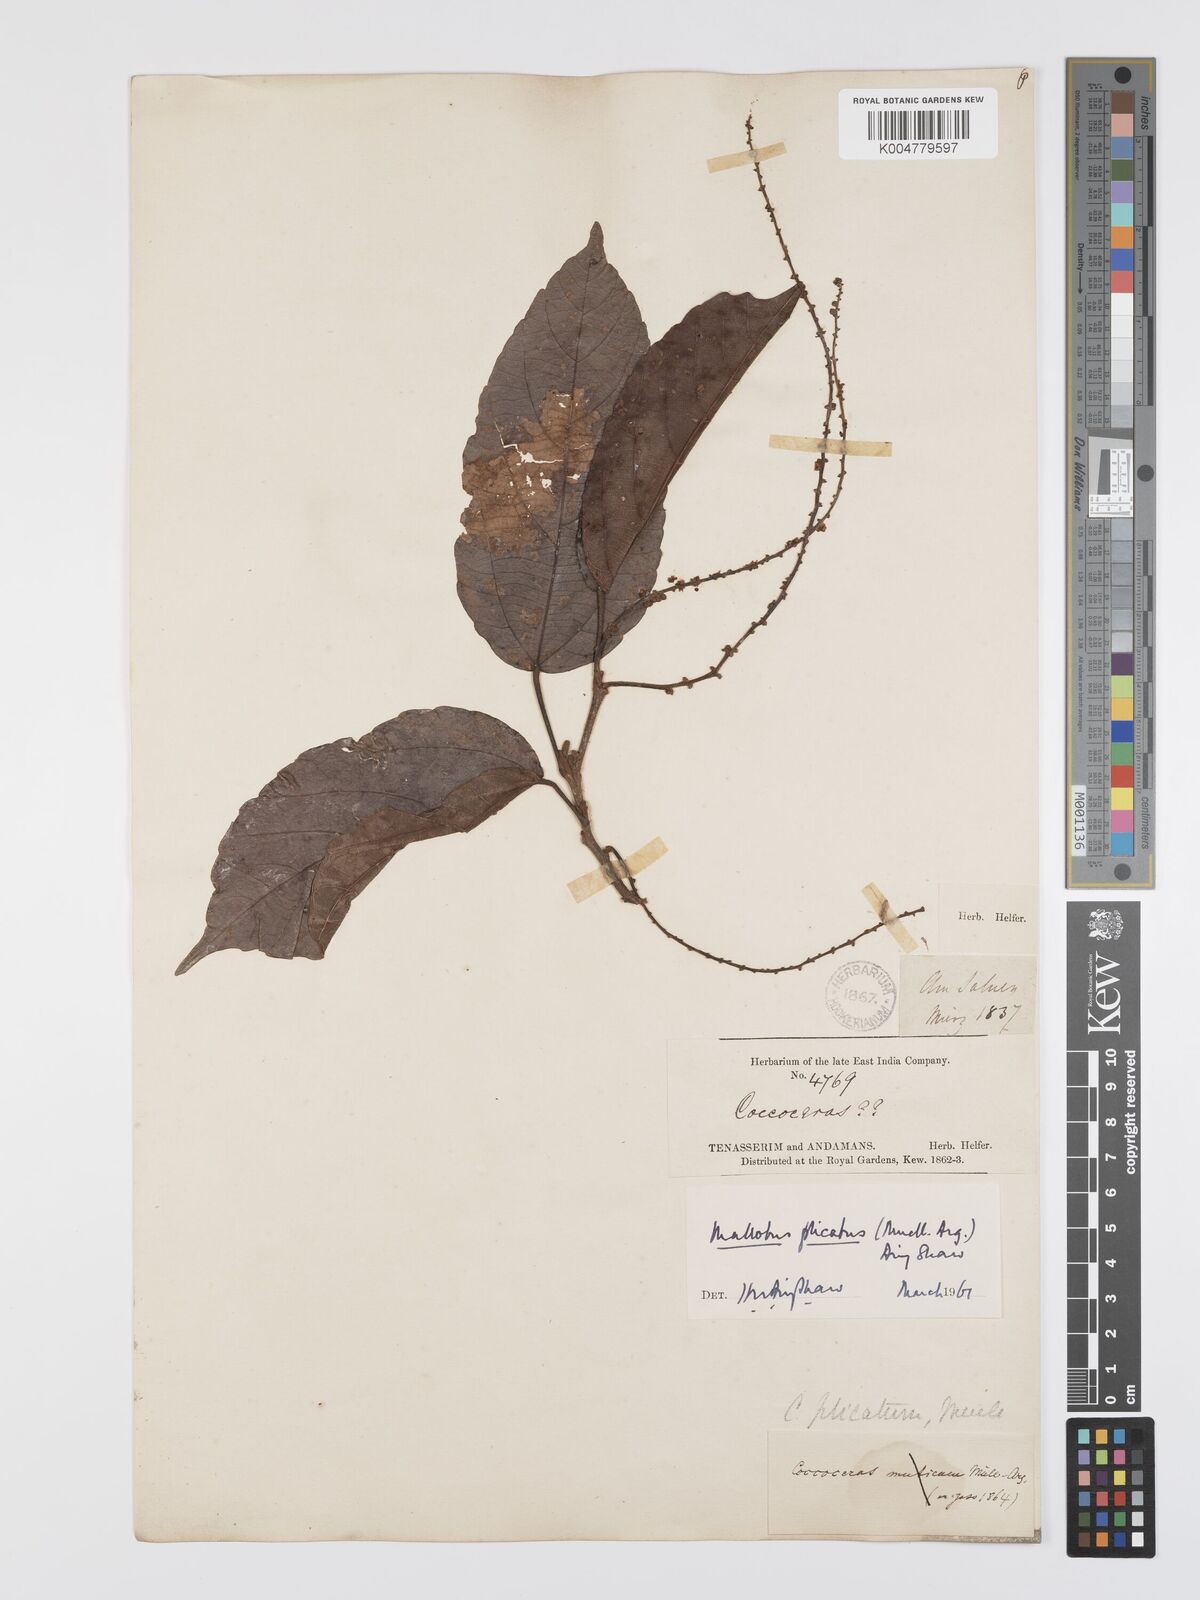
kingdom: Plantae
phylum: Tracheophyta
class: Magnoliopsida
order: Malpighiales
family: Euphorbiaceae
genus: Mallotus
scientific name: Mallotus plicatus
